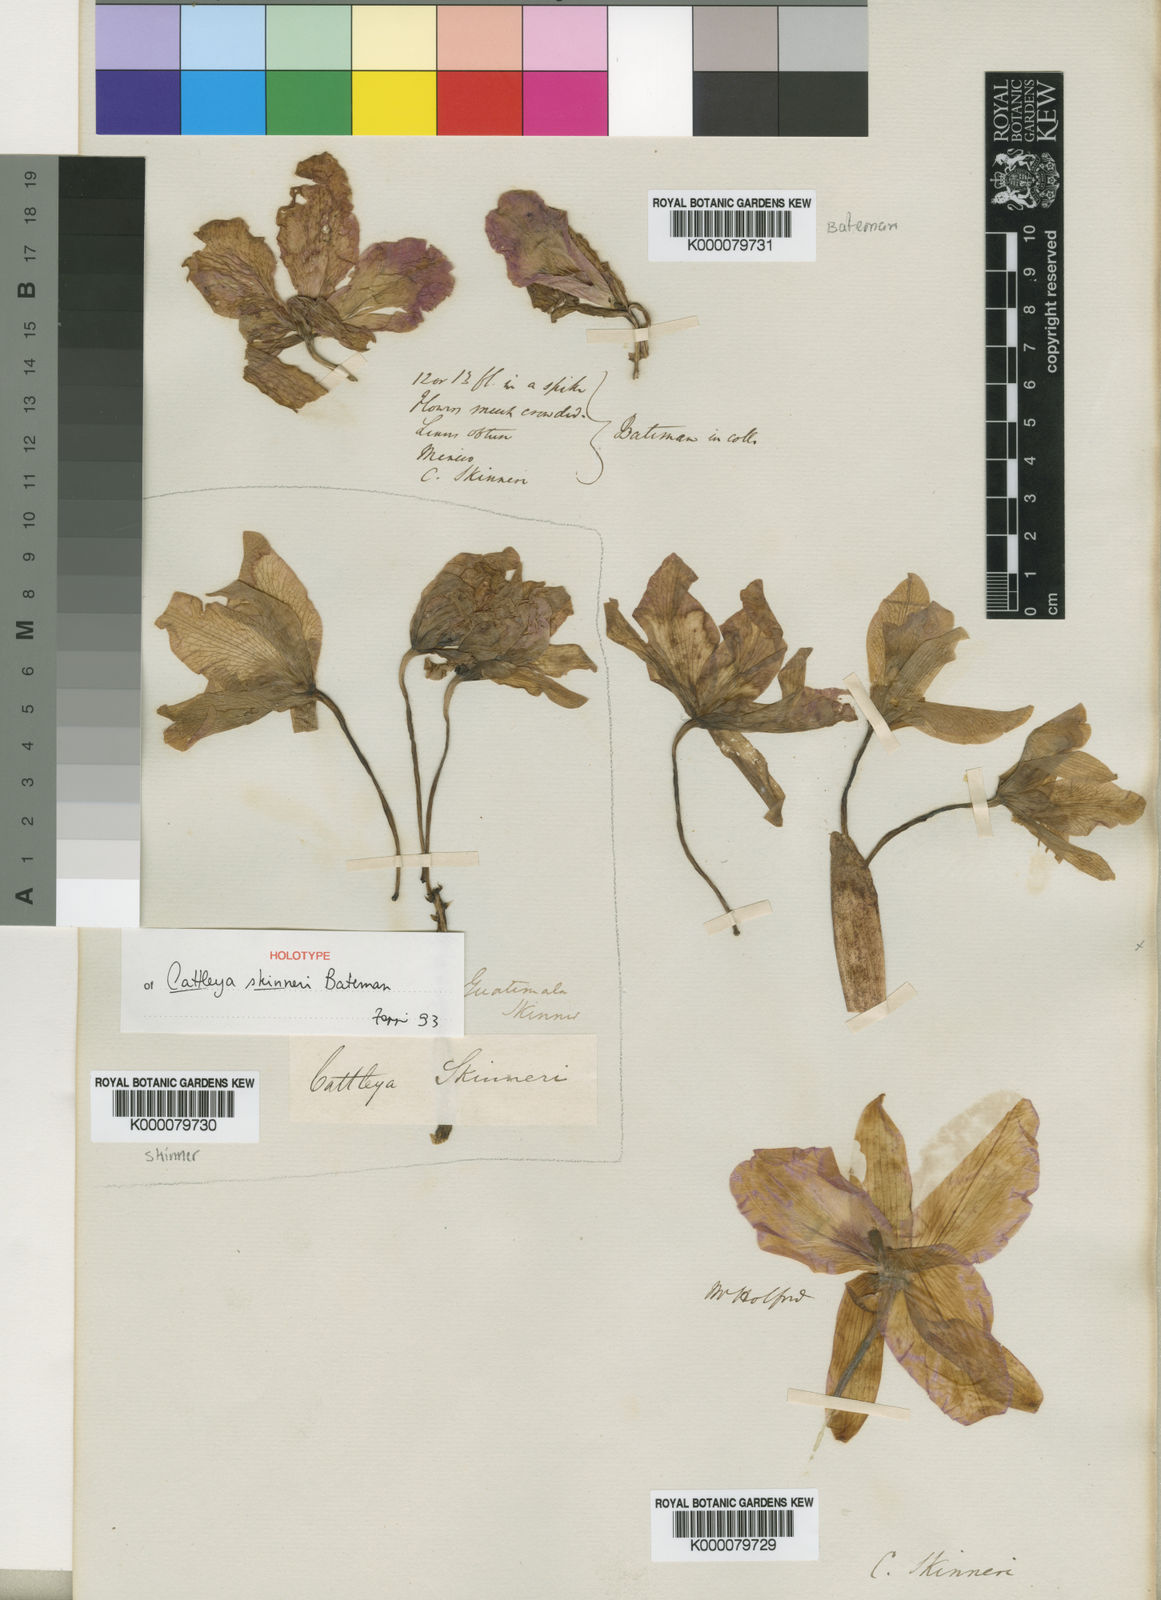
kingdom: Plantae
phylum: Tracheophyta
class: Liliopsida
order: Asparagales
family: Orchidaceae
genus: Guarianthe
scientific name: Guarianthe skinneri
